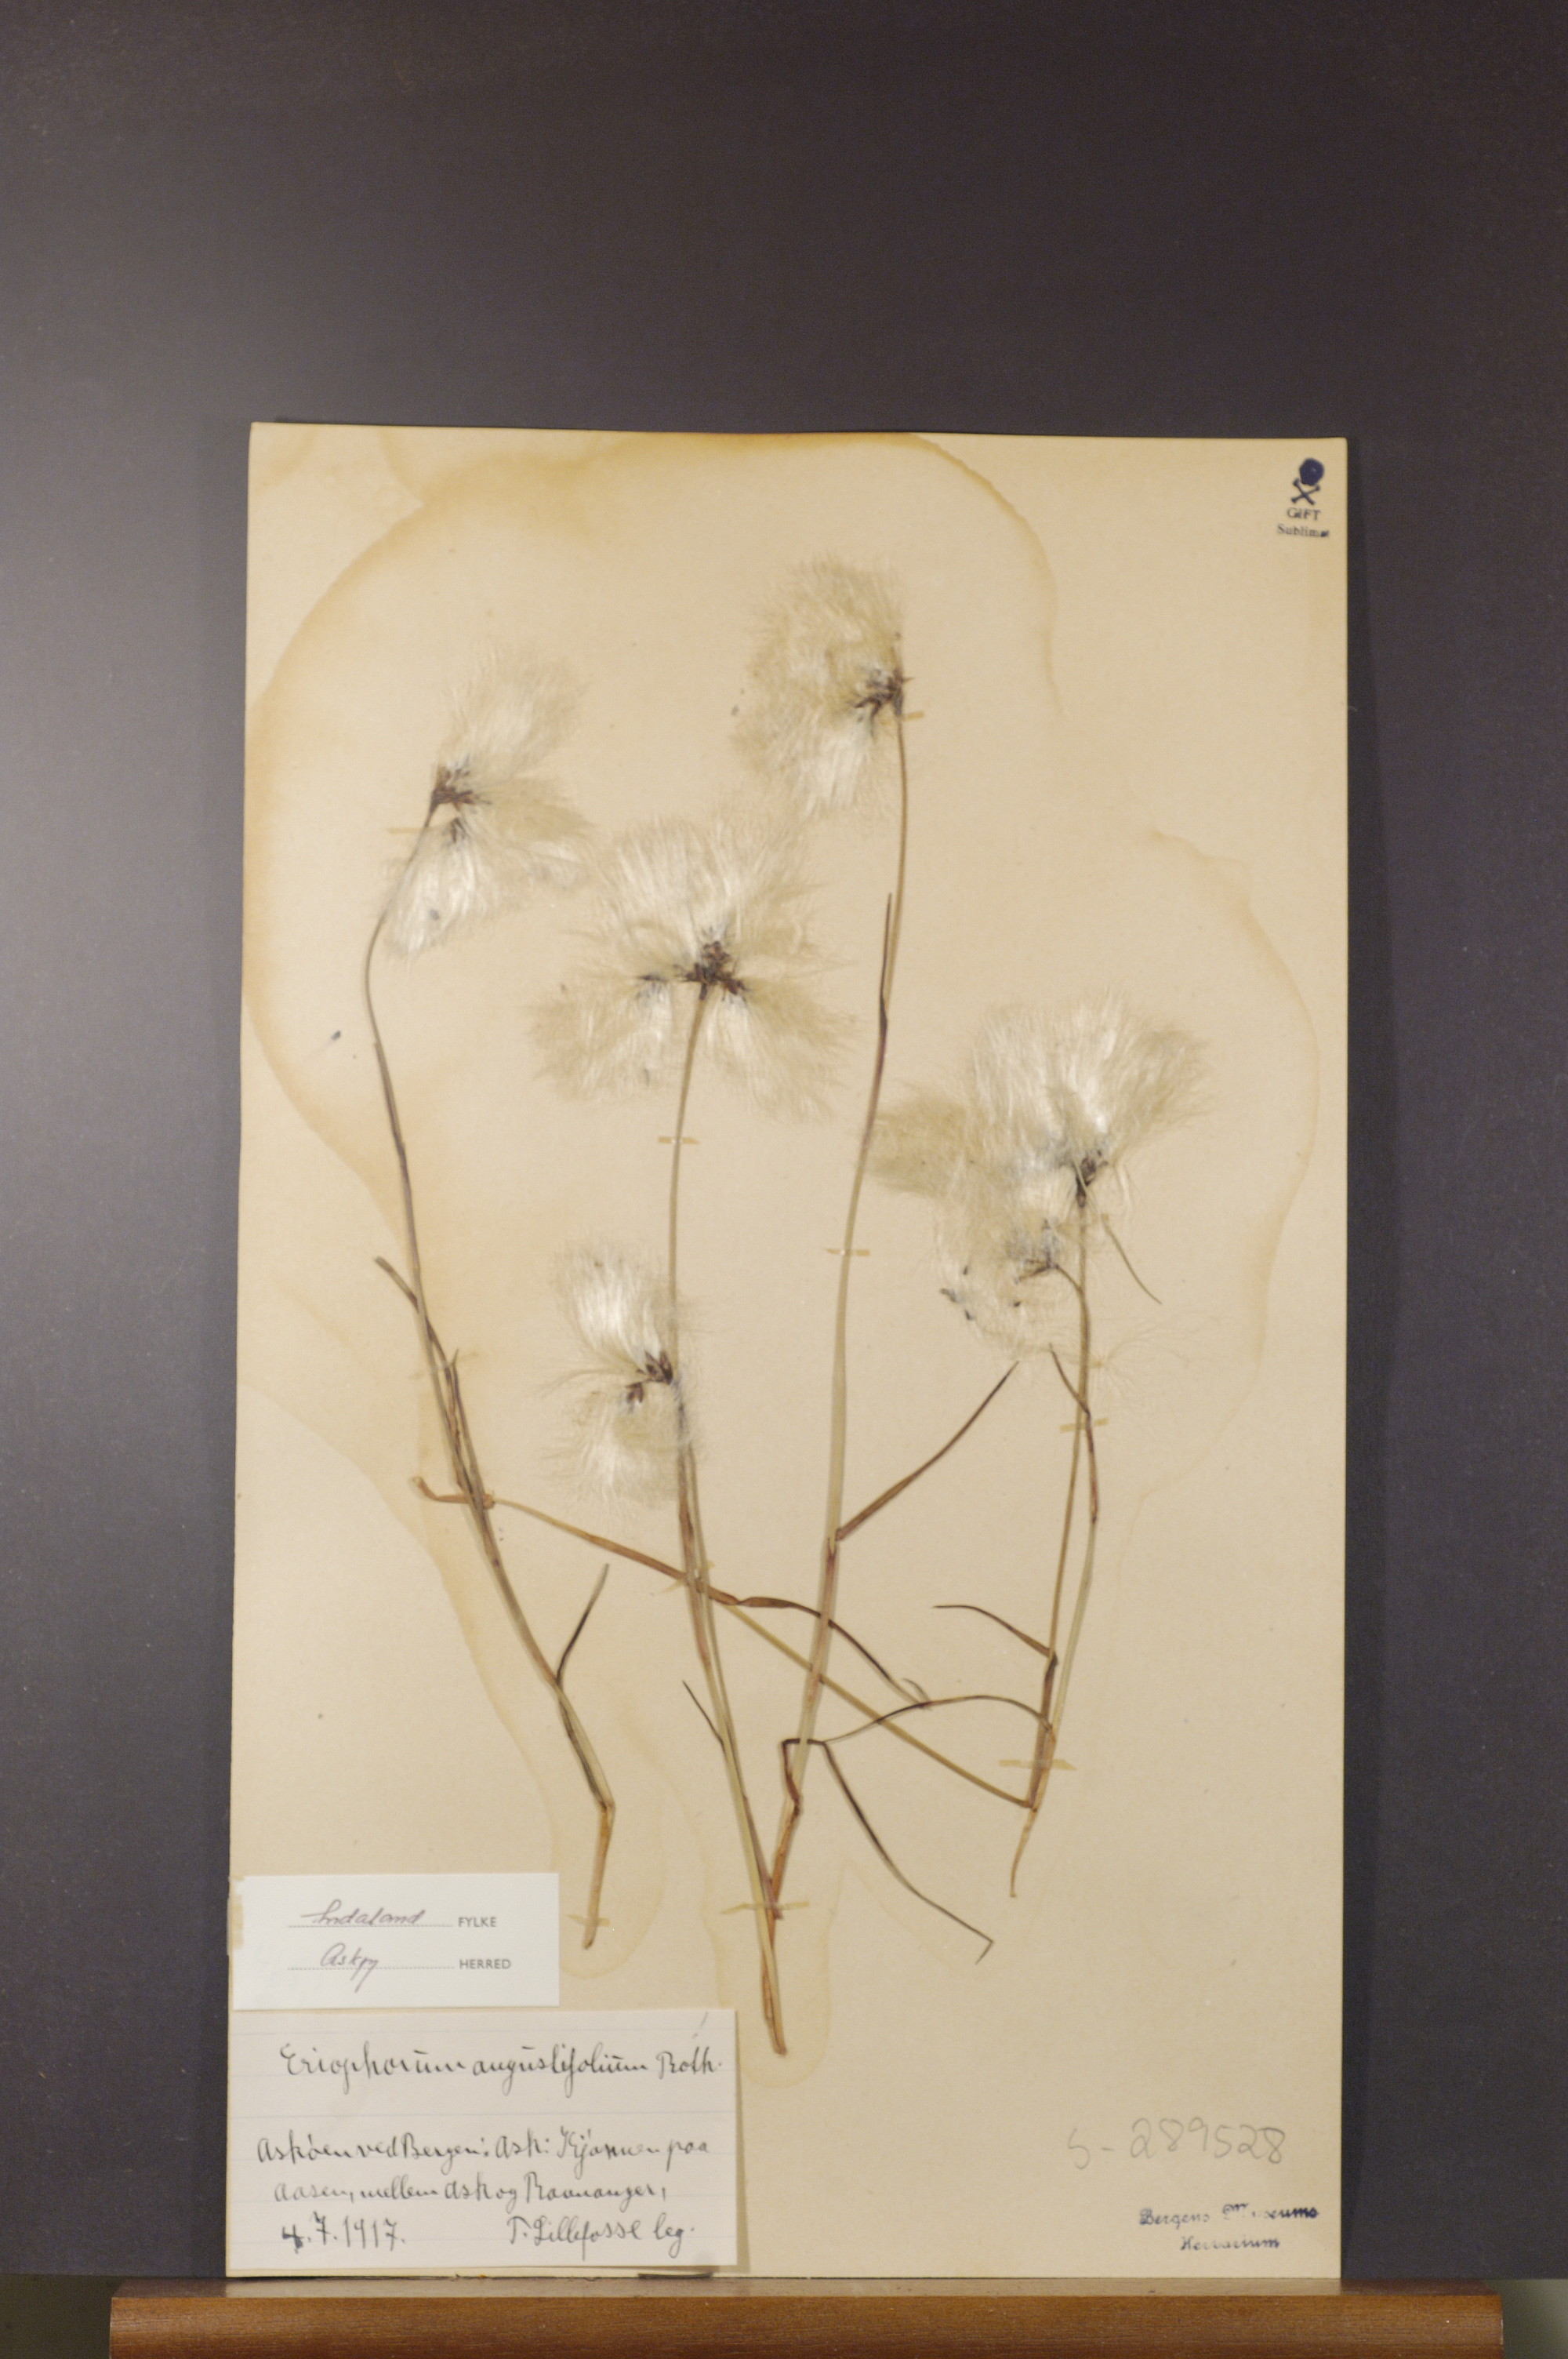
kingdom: Plantae
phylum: Tracheophyta
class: Liliopsida
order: Poales
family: Cyperaceae
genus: Eriophorum
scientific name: Eriophorum angustifolium
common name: Common cottongrass
